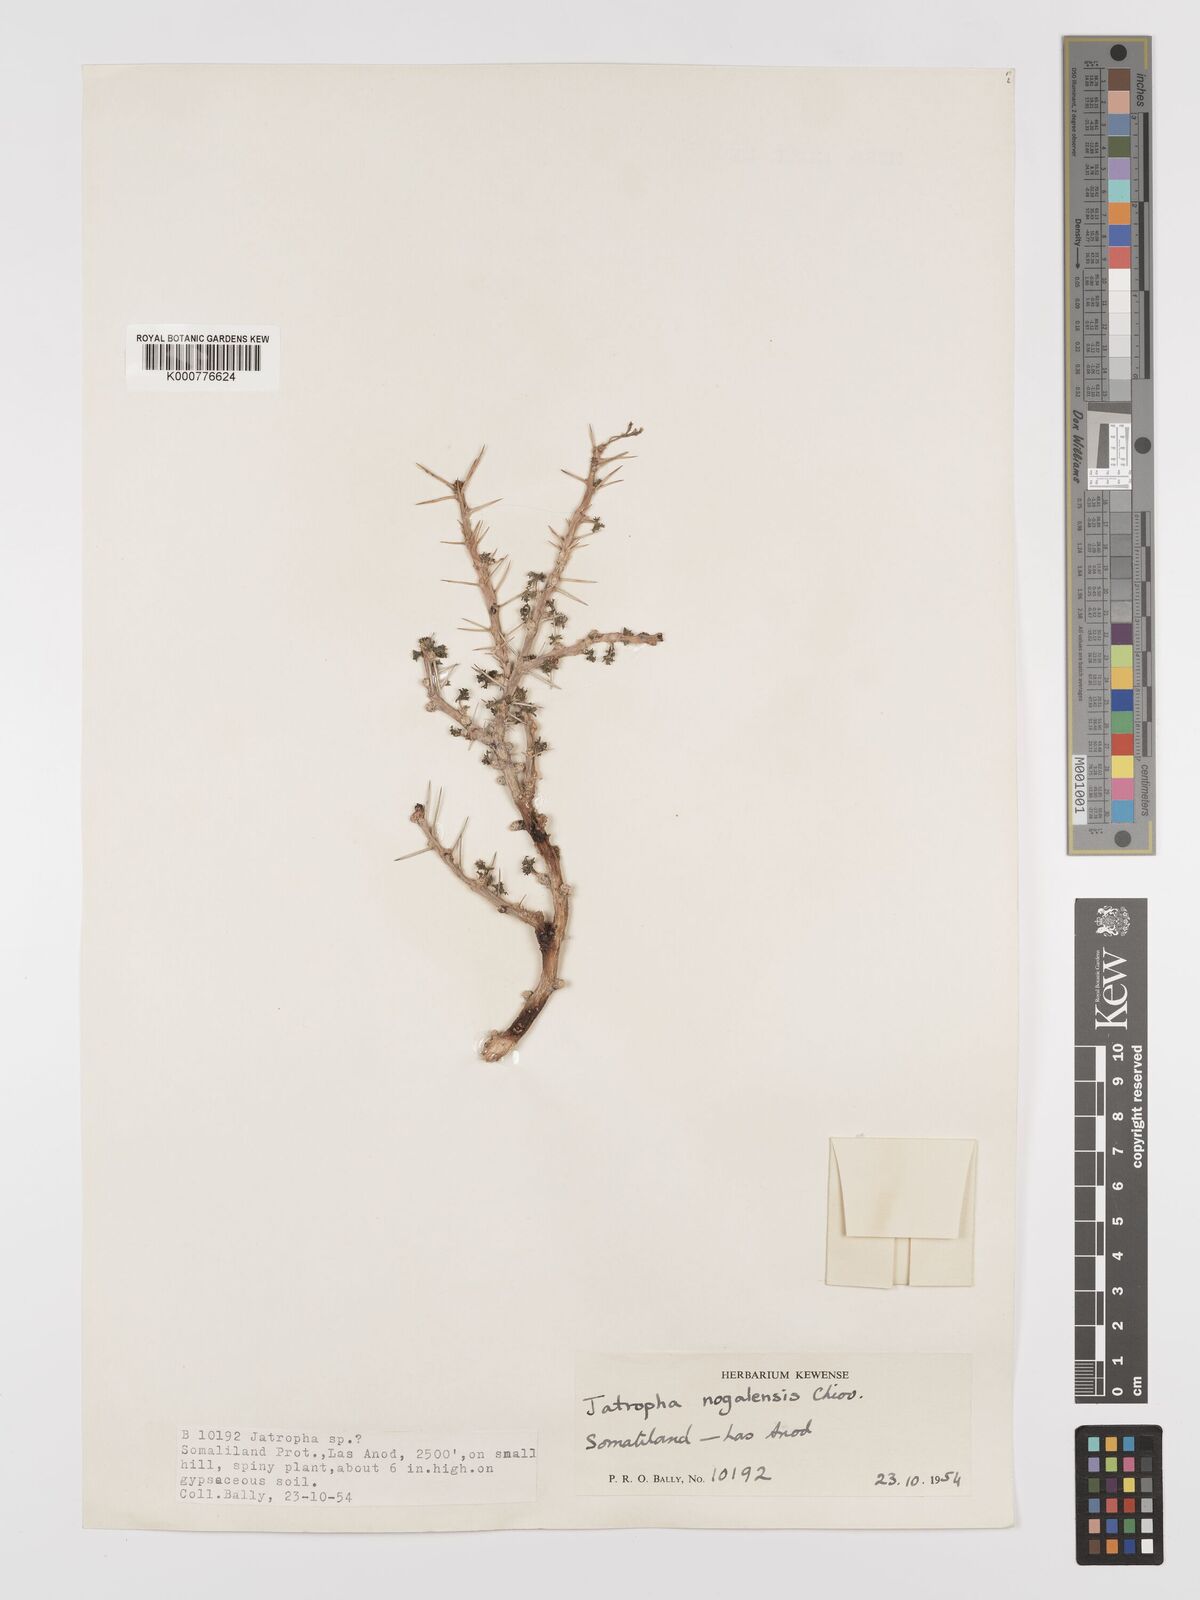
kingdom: Plantae
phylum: Tracheophyta
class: Magnoliopsida
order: Malpighiales
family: Euphorbiaceae
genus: Jatropha
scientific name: Jatropha nogalensis
